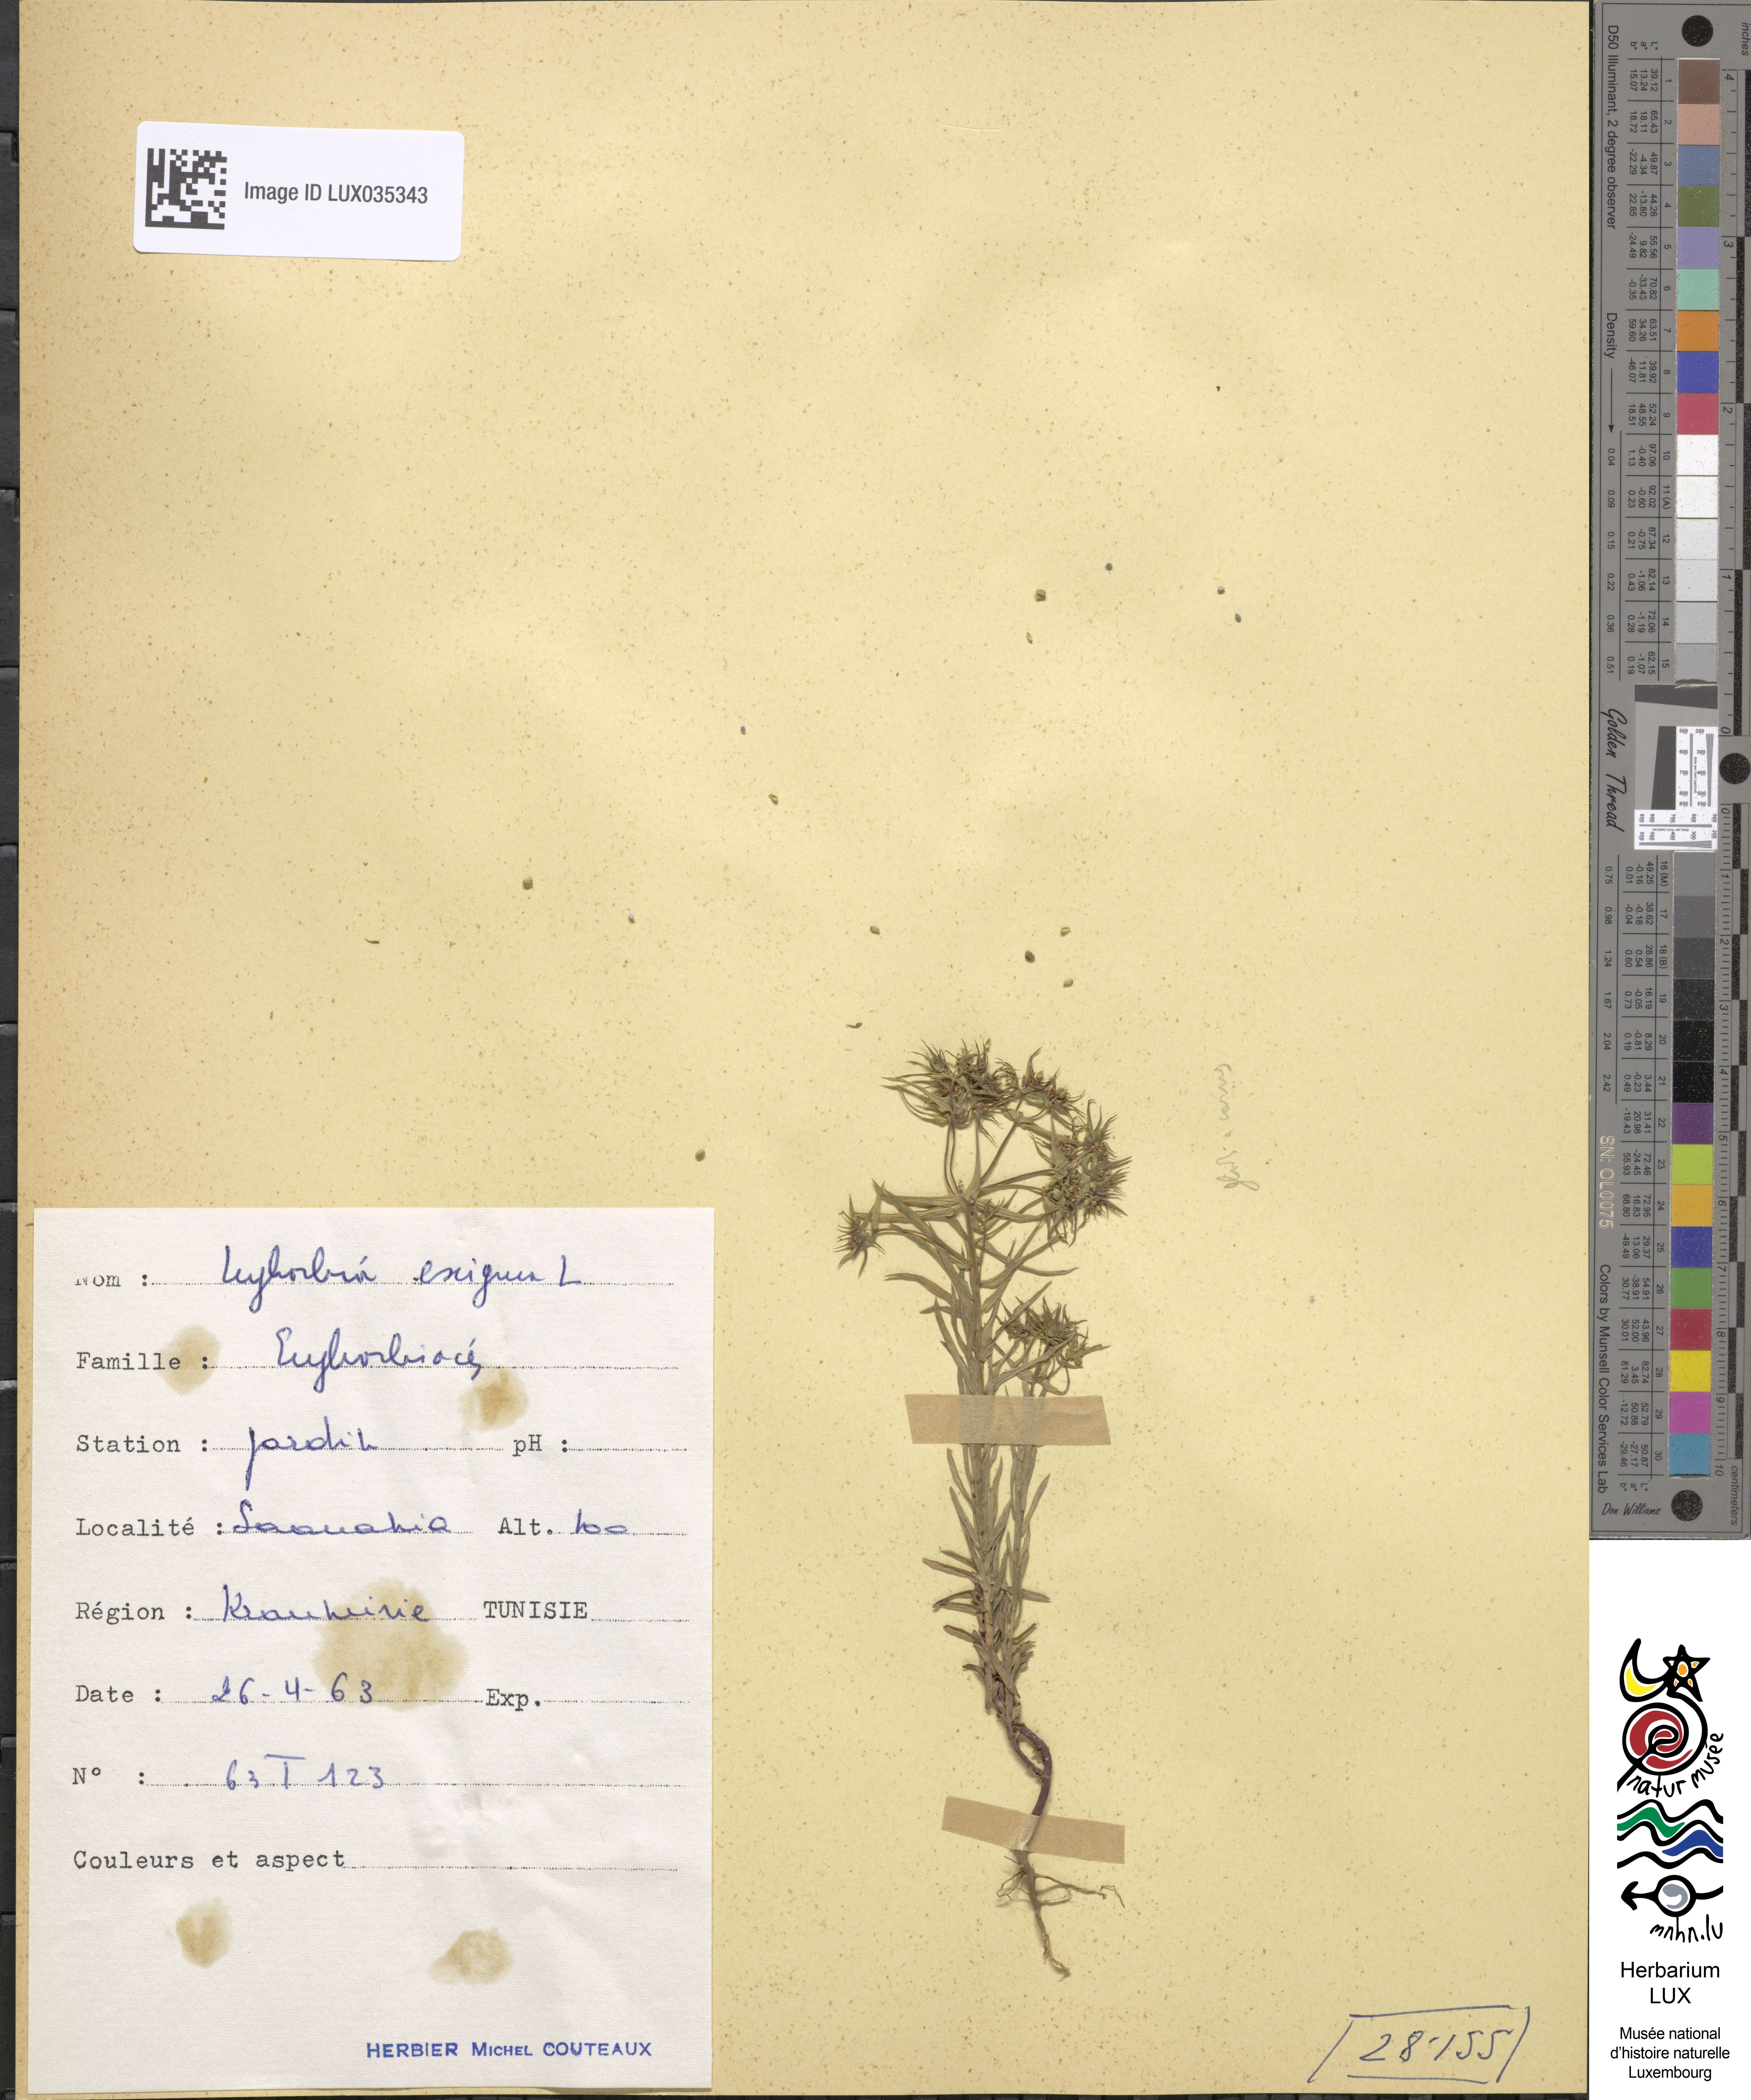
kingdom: Plantae
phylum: Tracheophyta
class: Magnoliopsida
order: Malpighiales
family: Euphorbiaceae
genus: Euphorbia
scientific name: Euphorbia exigua
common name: Dwarf spurge
